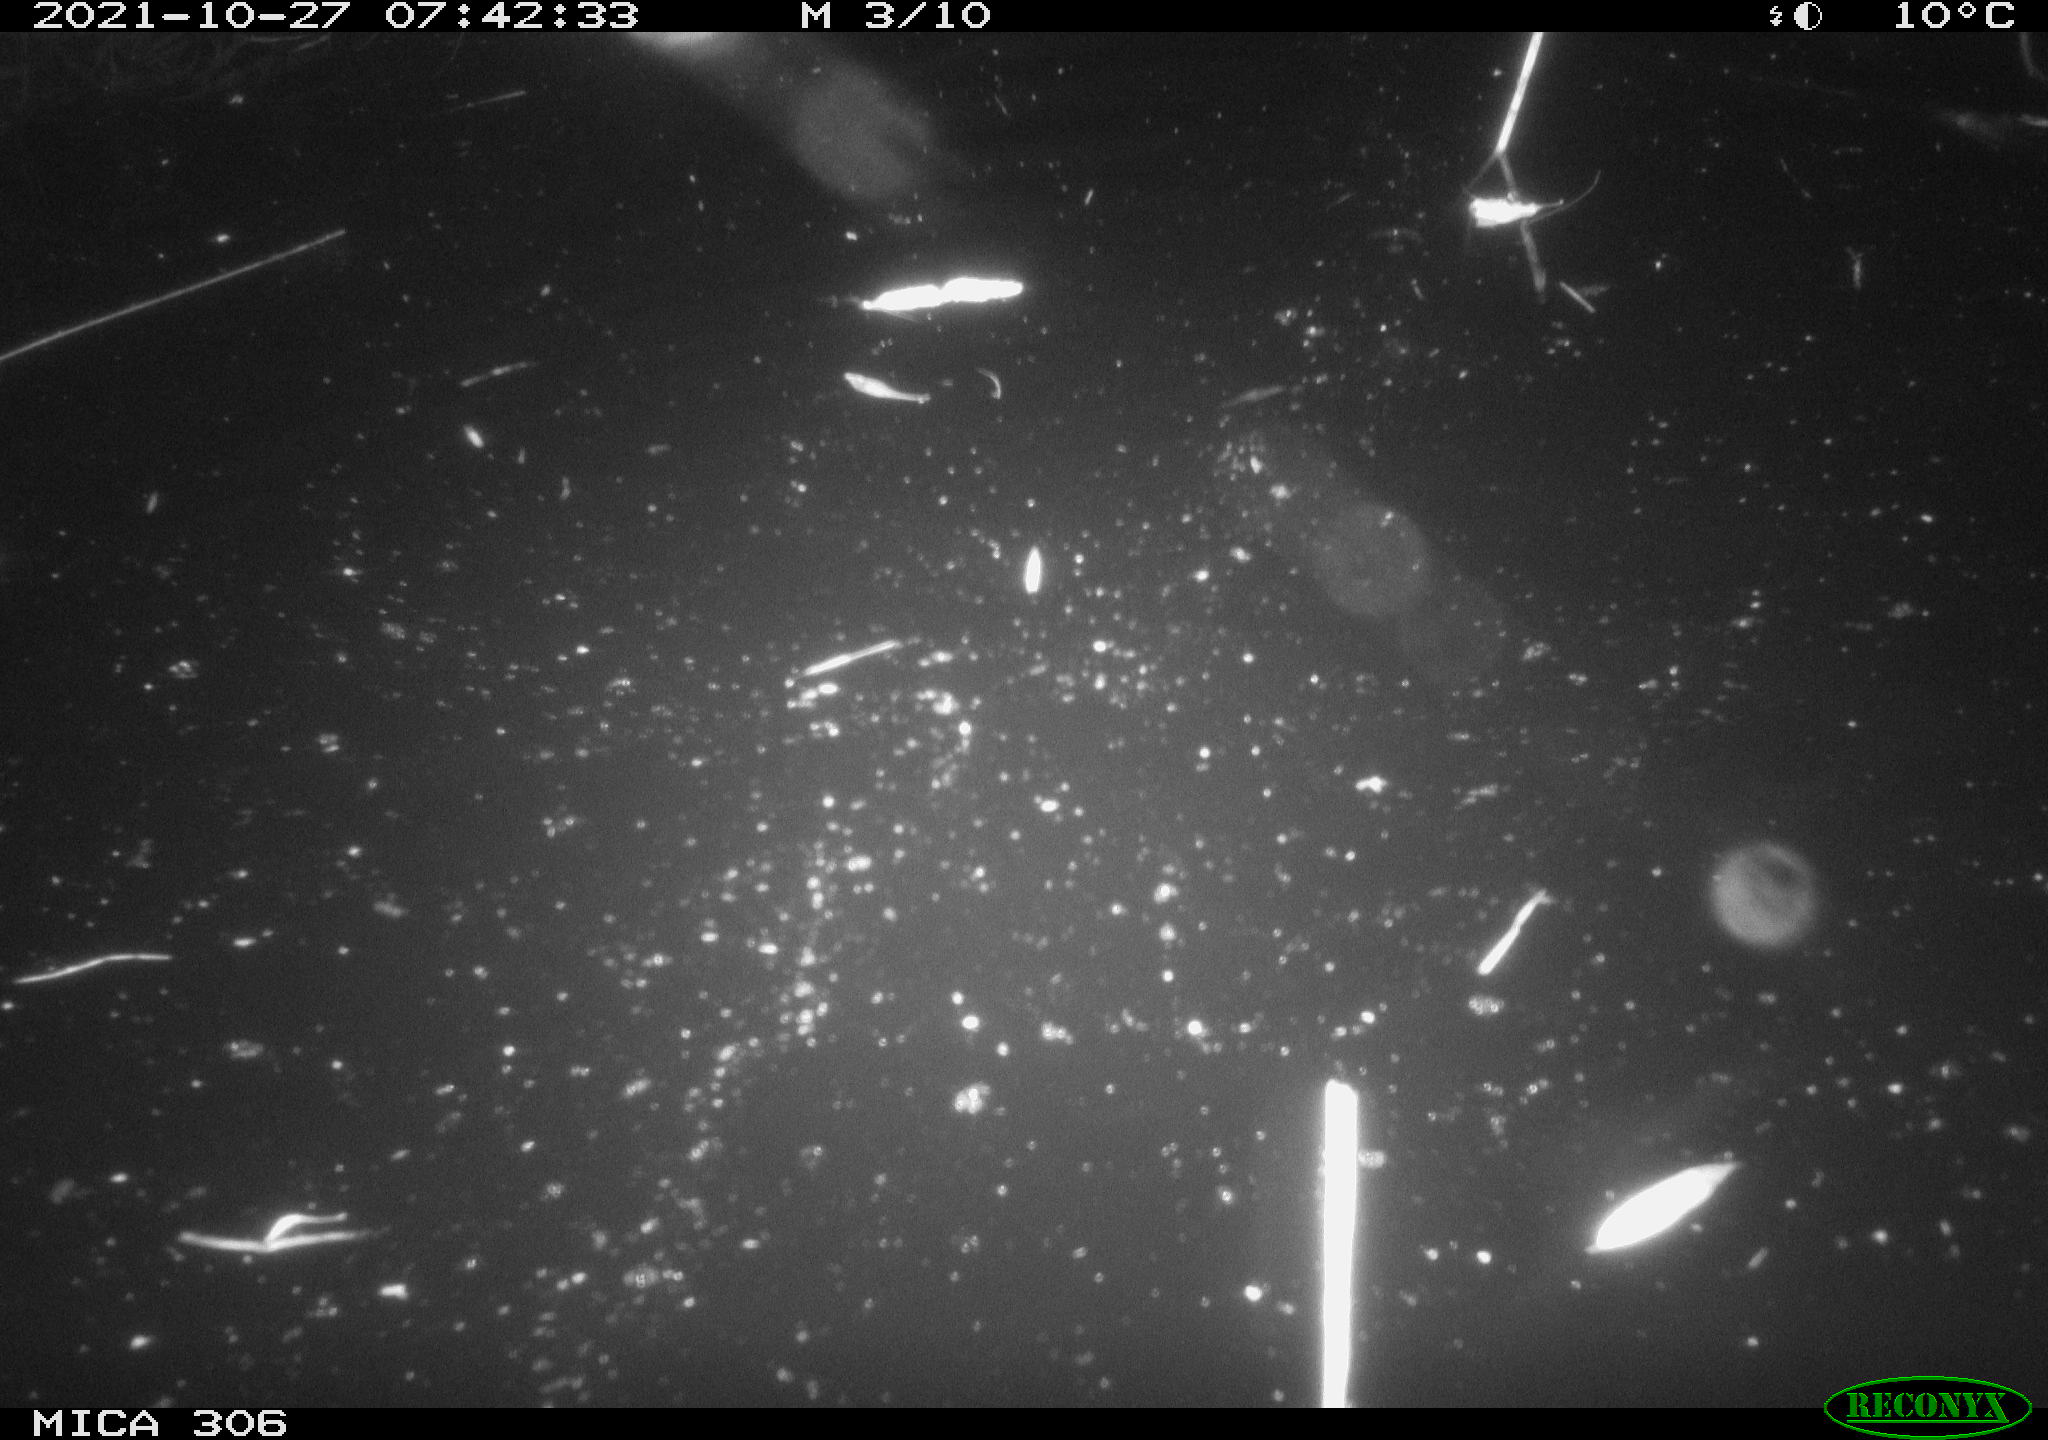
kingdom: Animalia
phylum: Chordata
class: Aves
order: Gruiformes
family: Rallidae
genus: Gallinula
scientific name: Gallinula chloropus
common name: Common moorhen
